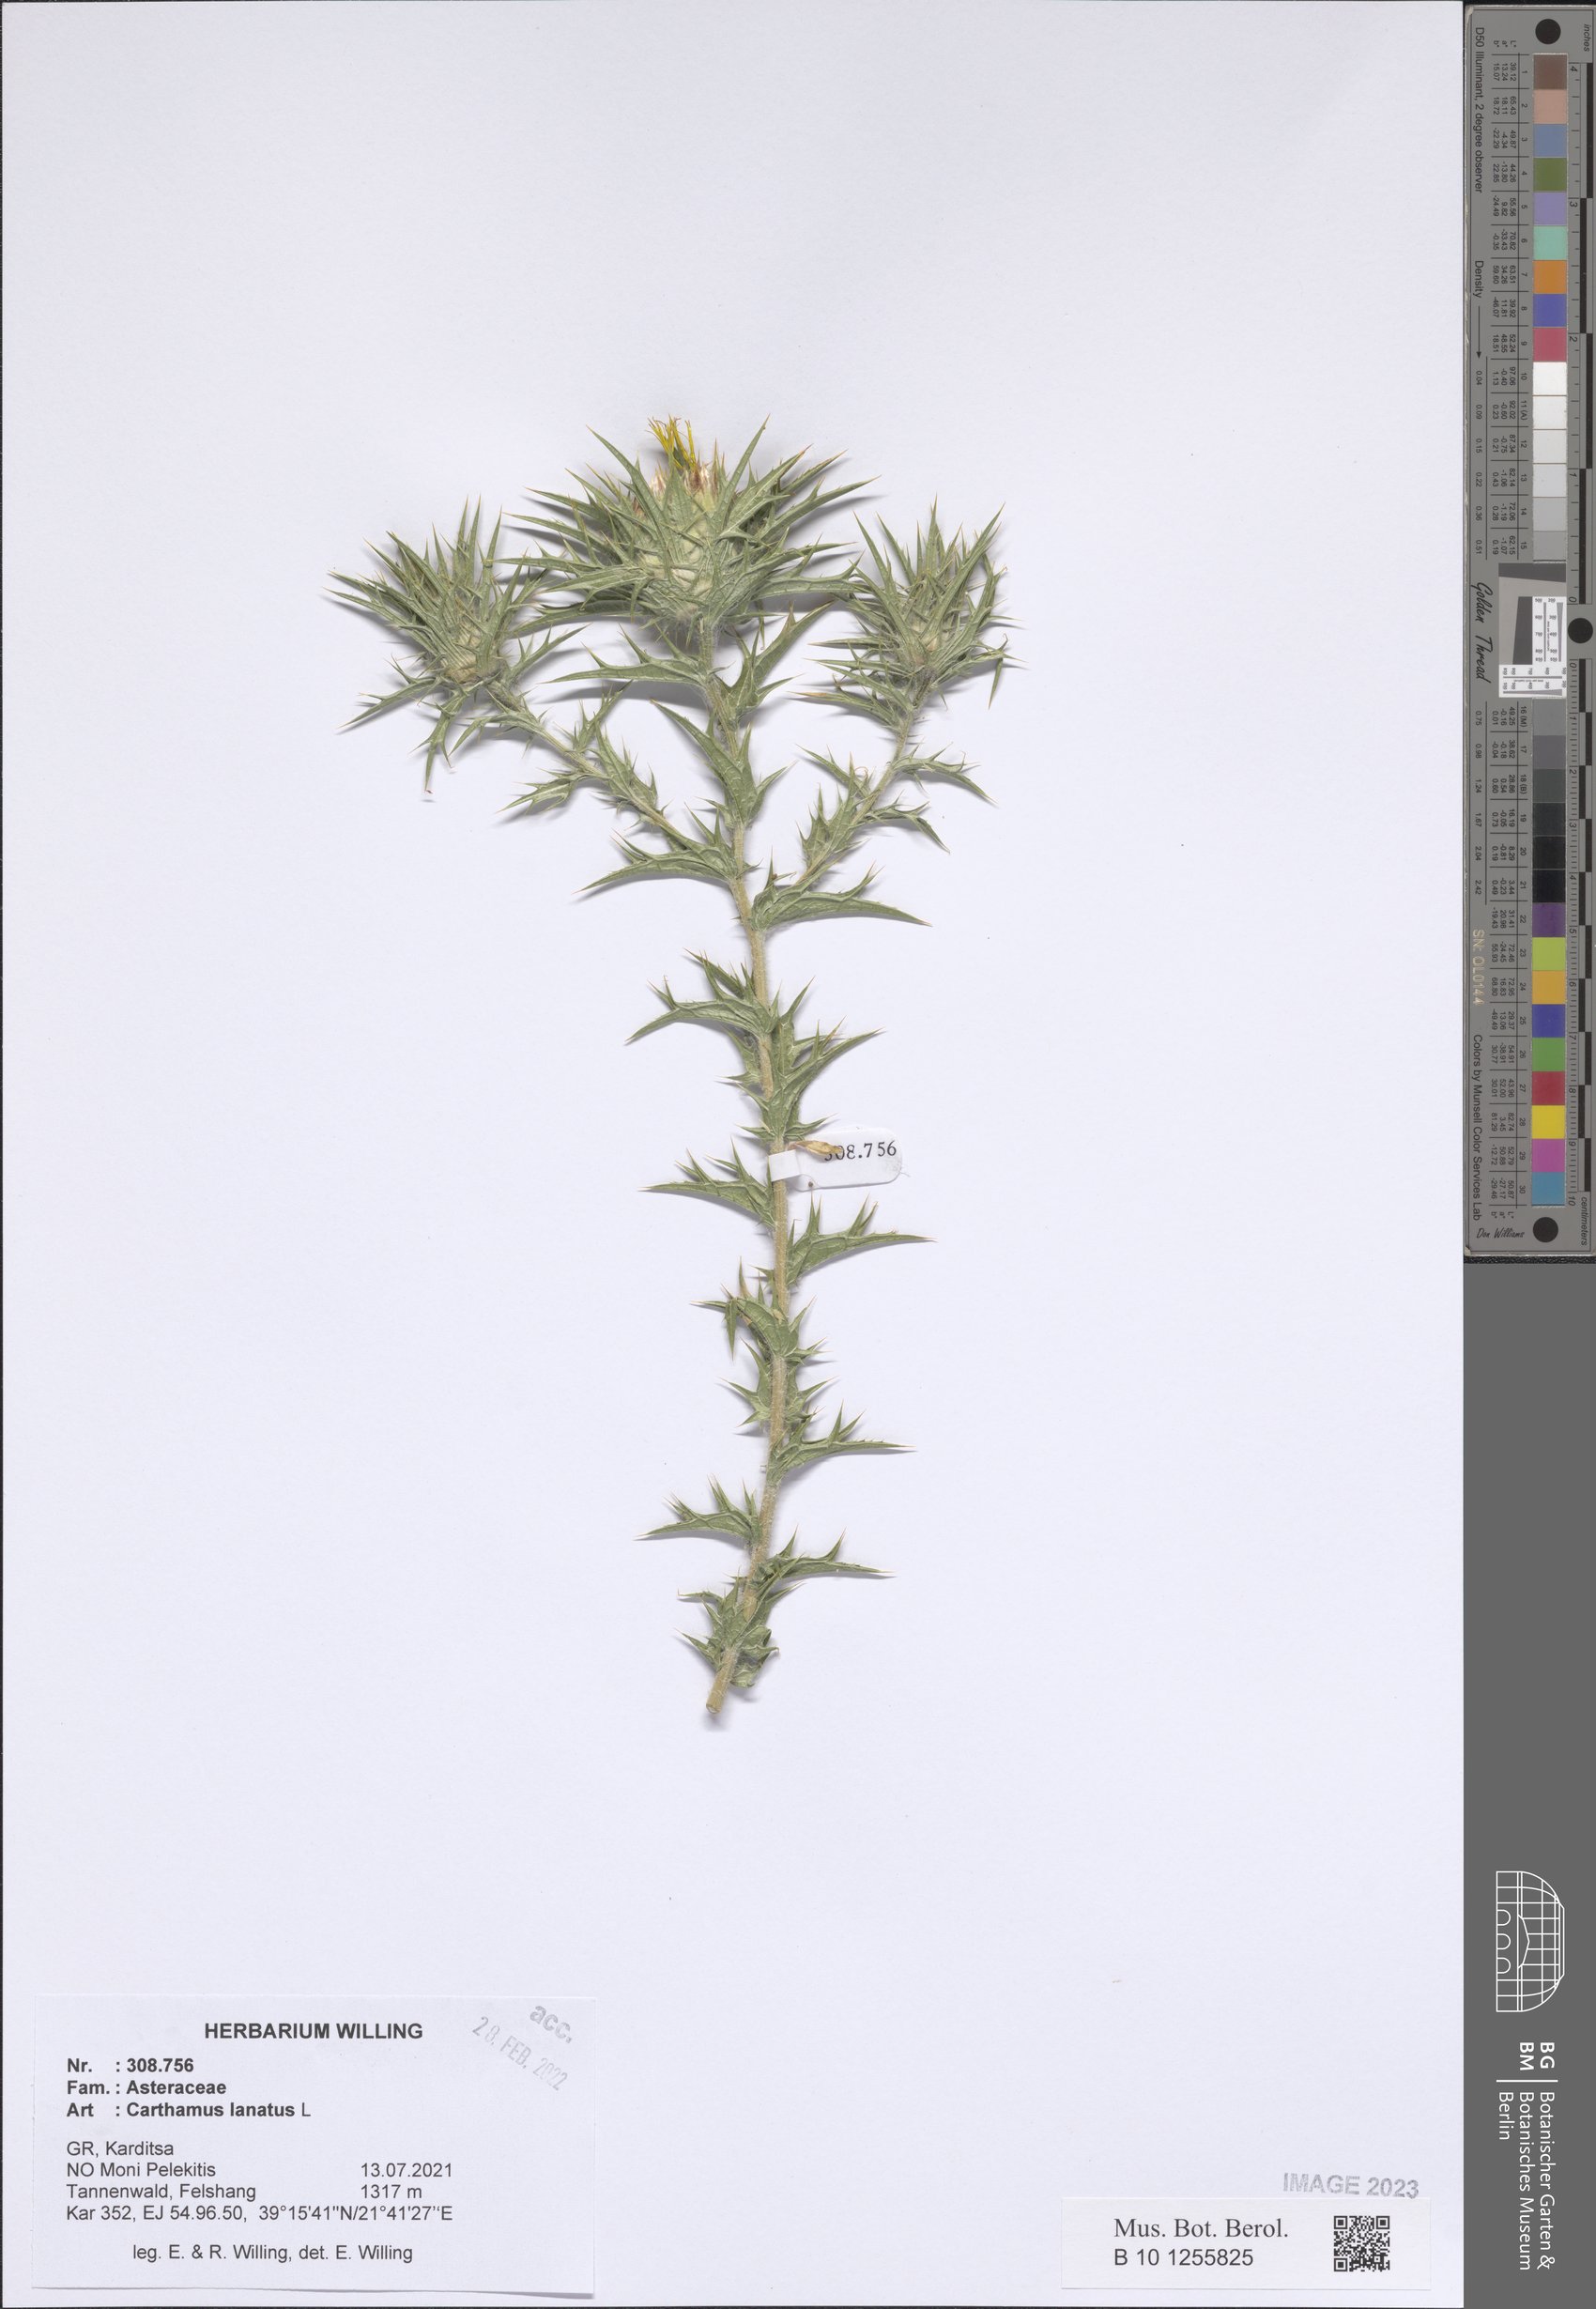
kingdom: Plantae
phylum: Tracheophyta
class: Magnoliopsida
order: Asterales
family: Asteraceae
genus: Carthamus
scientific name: Carthamus lanatus
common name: Downy safflower
